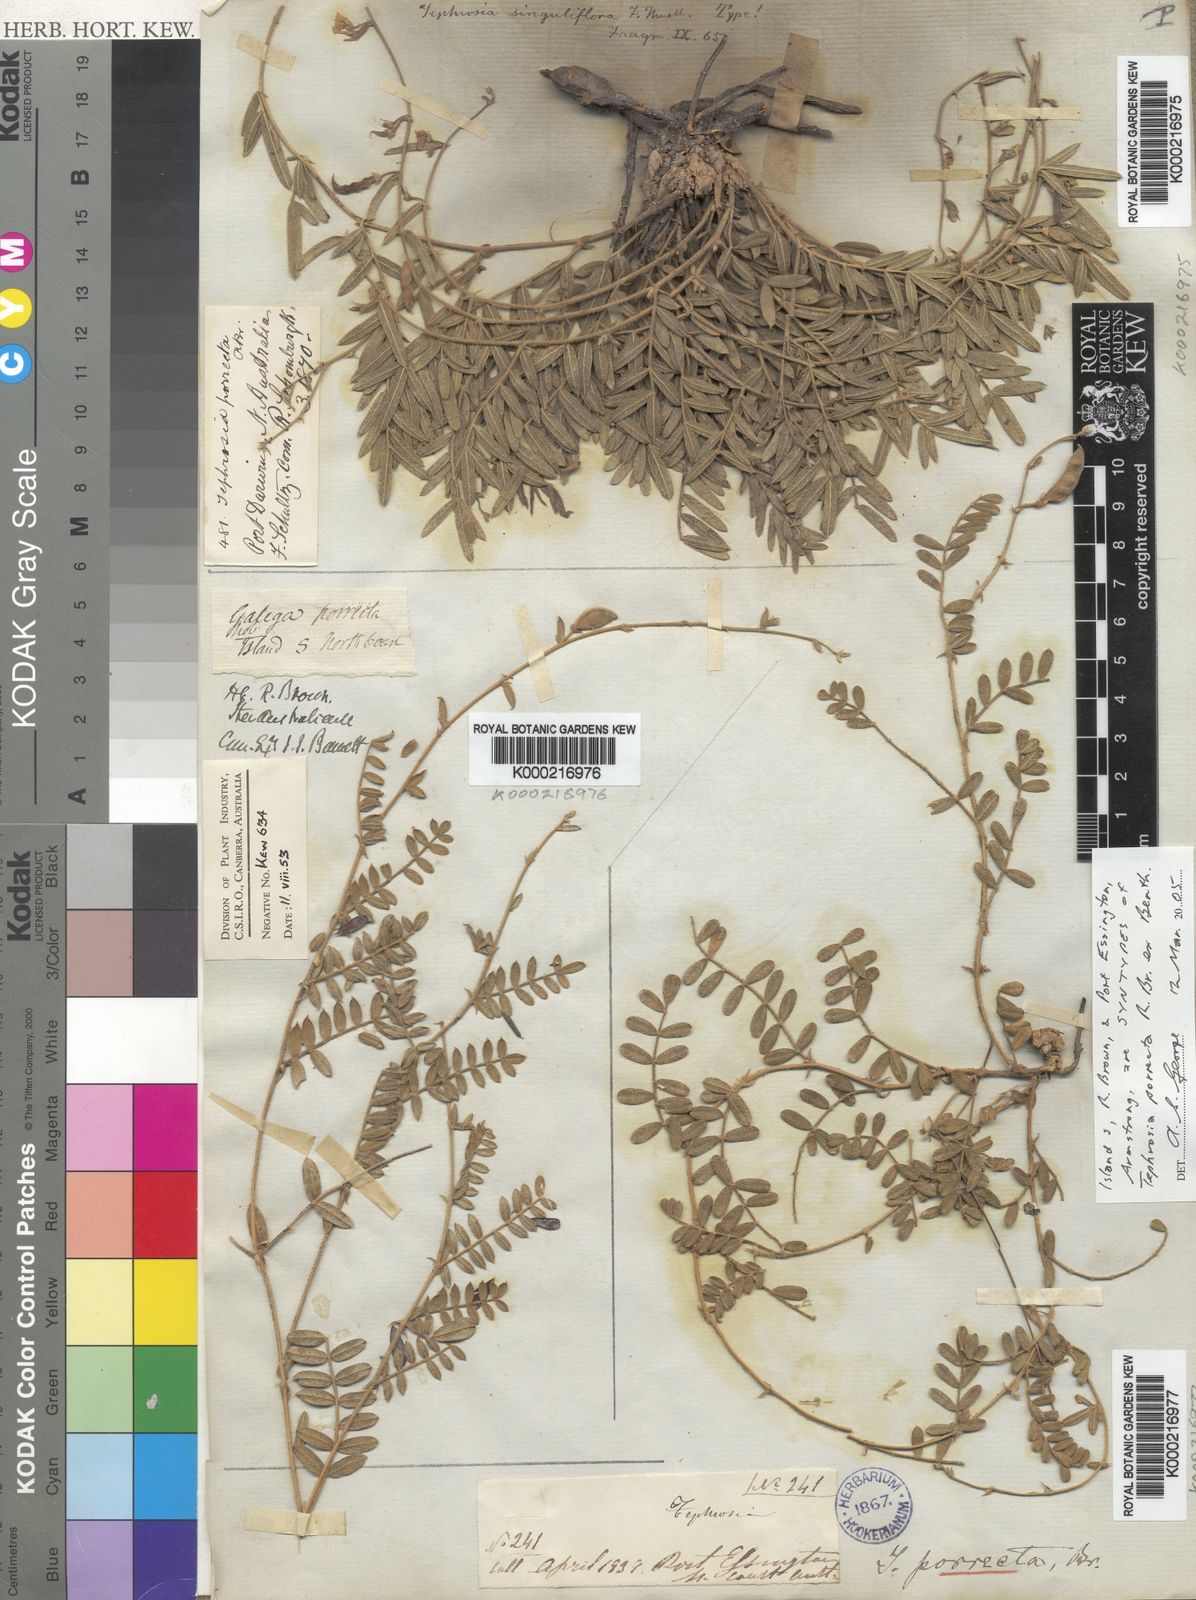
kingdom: Plantae
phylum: Tracheophyta
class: Magnoliopsida
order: Fabales
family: Fabaceae
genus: Tephrosia
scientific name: Tephrosia porrecta
